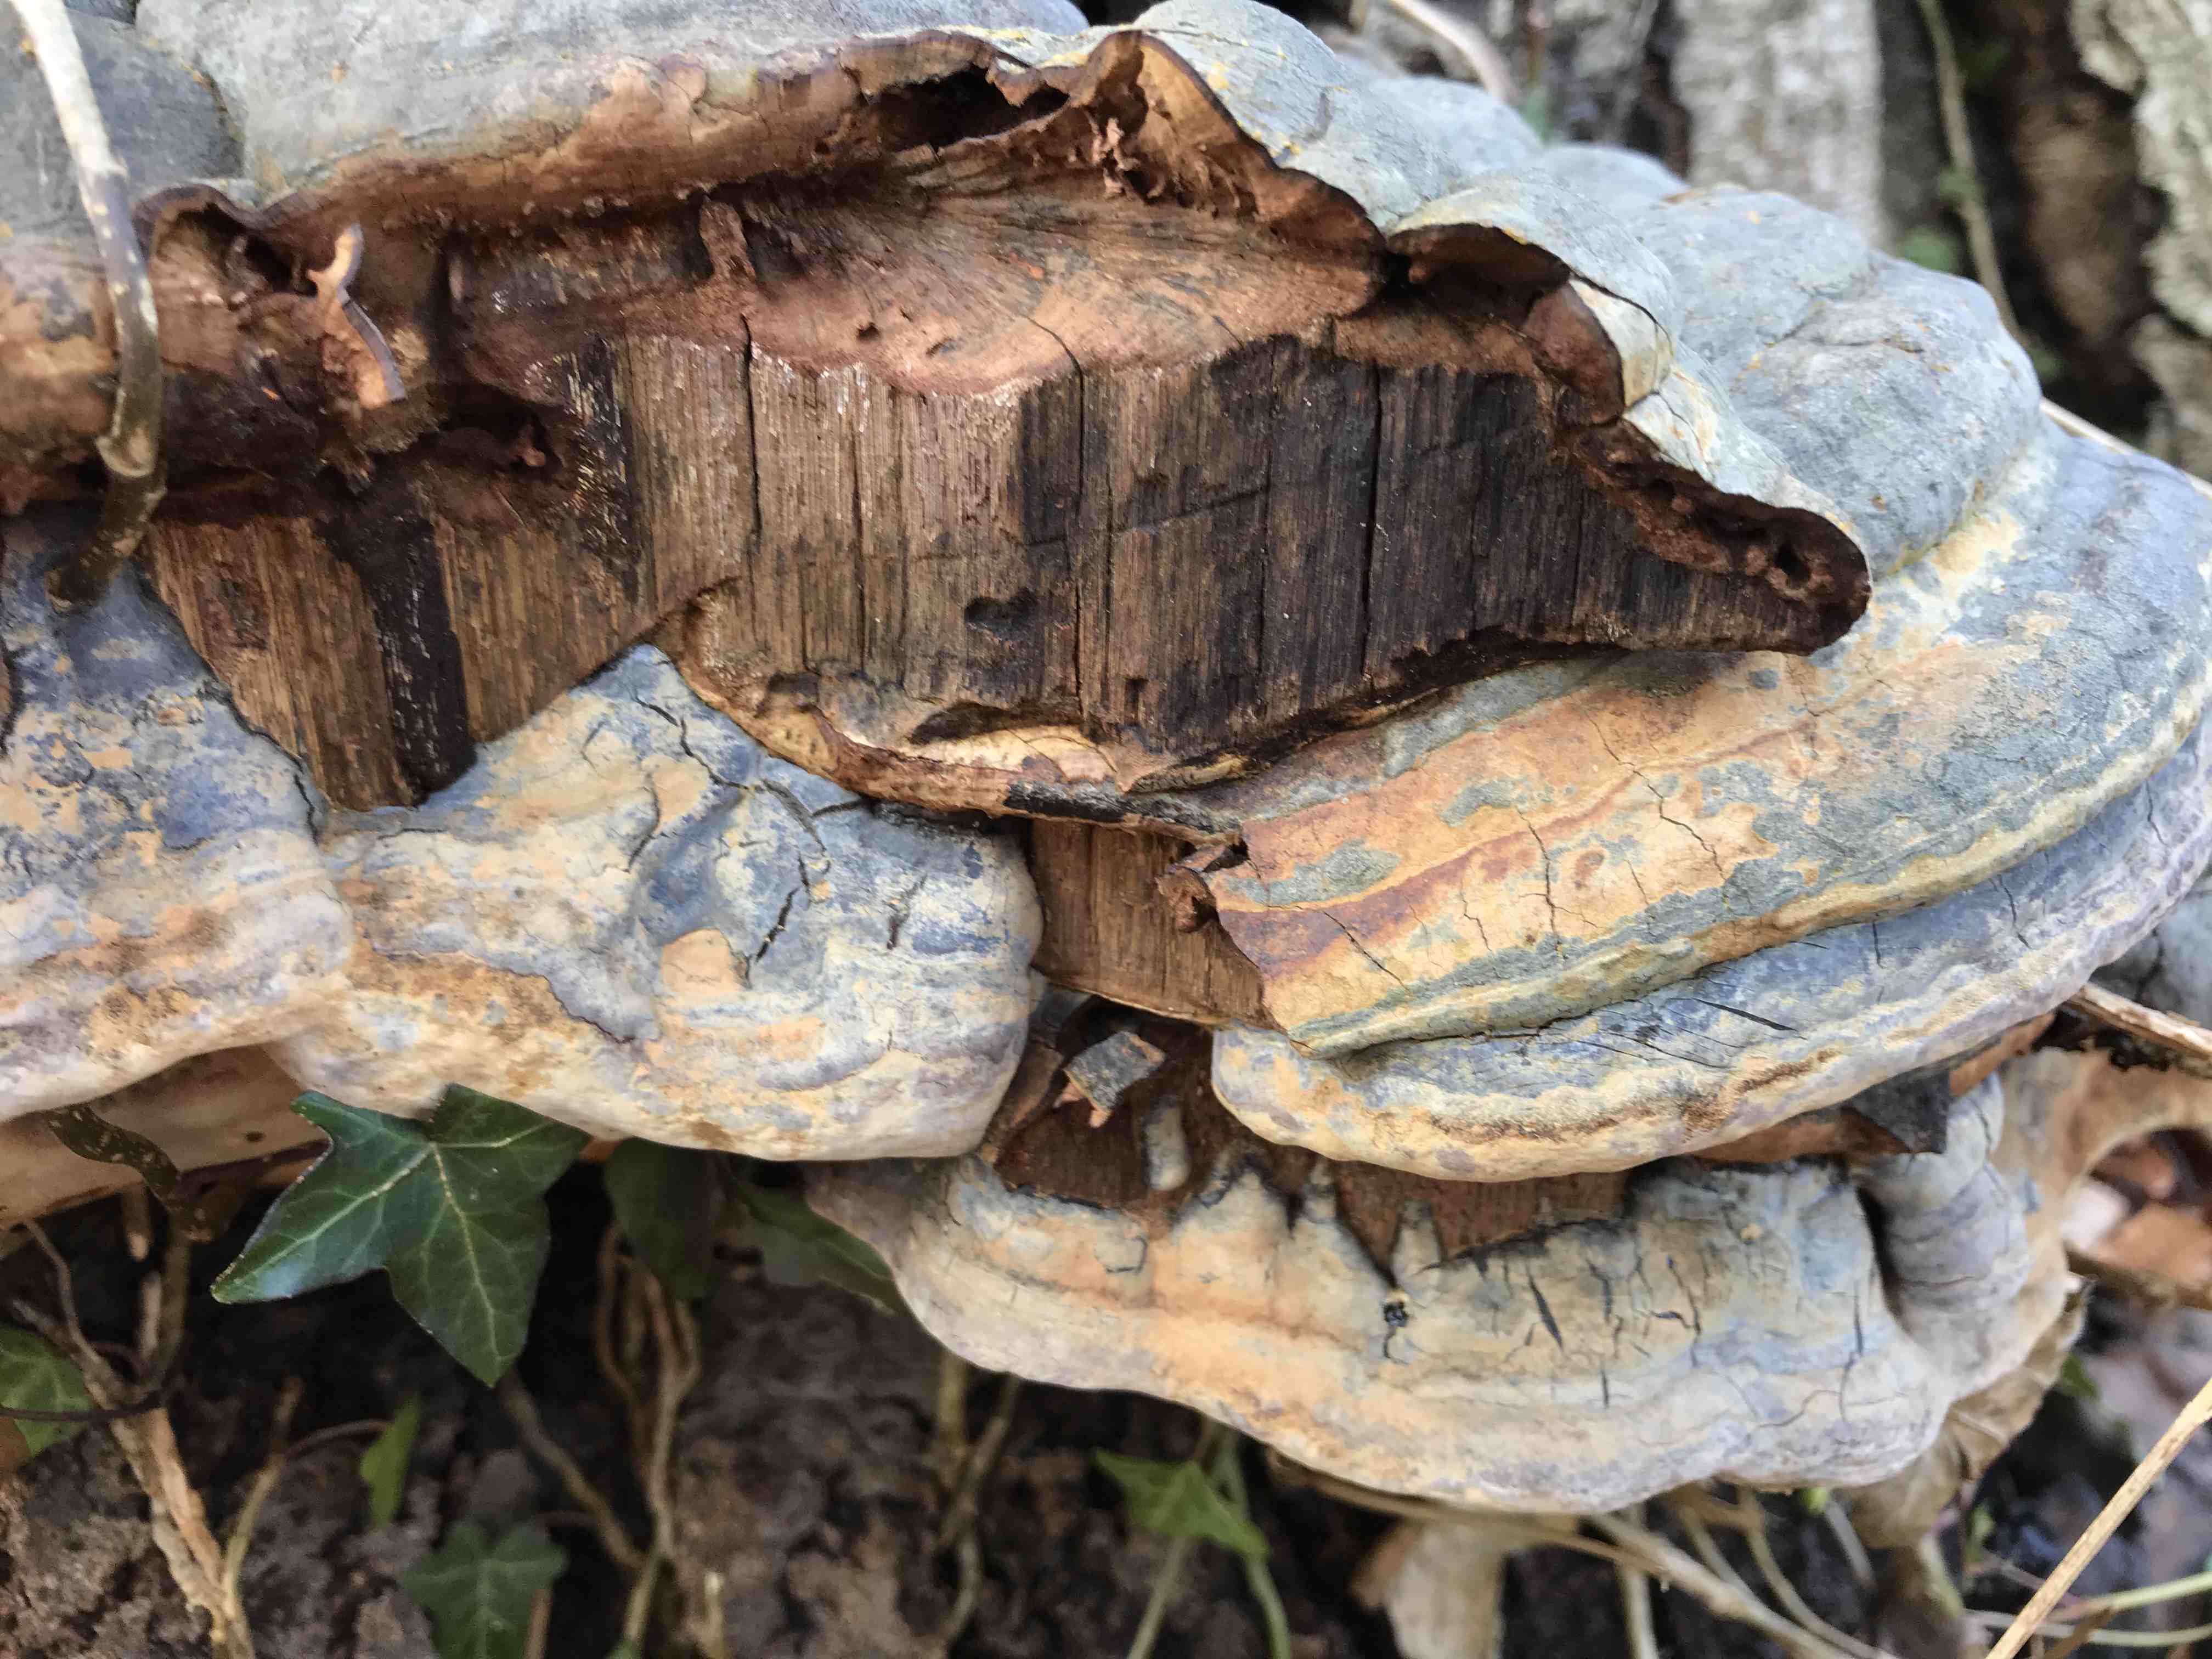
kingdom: Fungi
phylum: Basidiomycota
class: Agaricomycetes
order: Polyporales
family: Polyporaceae
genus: Ganoderma
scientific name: Ganoderma pfeifferi
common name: kobberrød lakporesvamp
